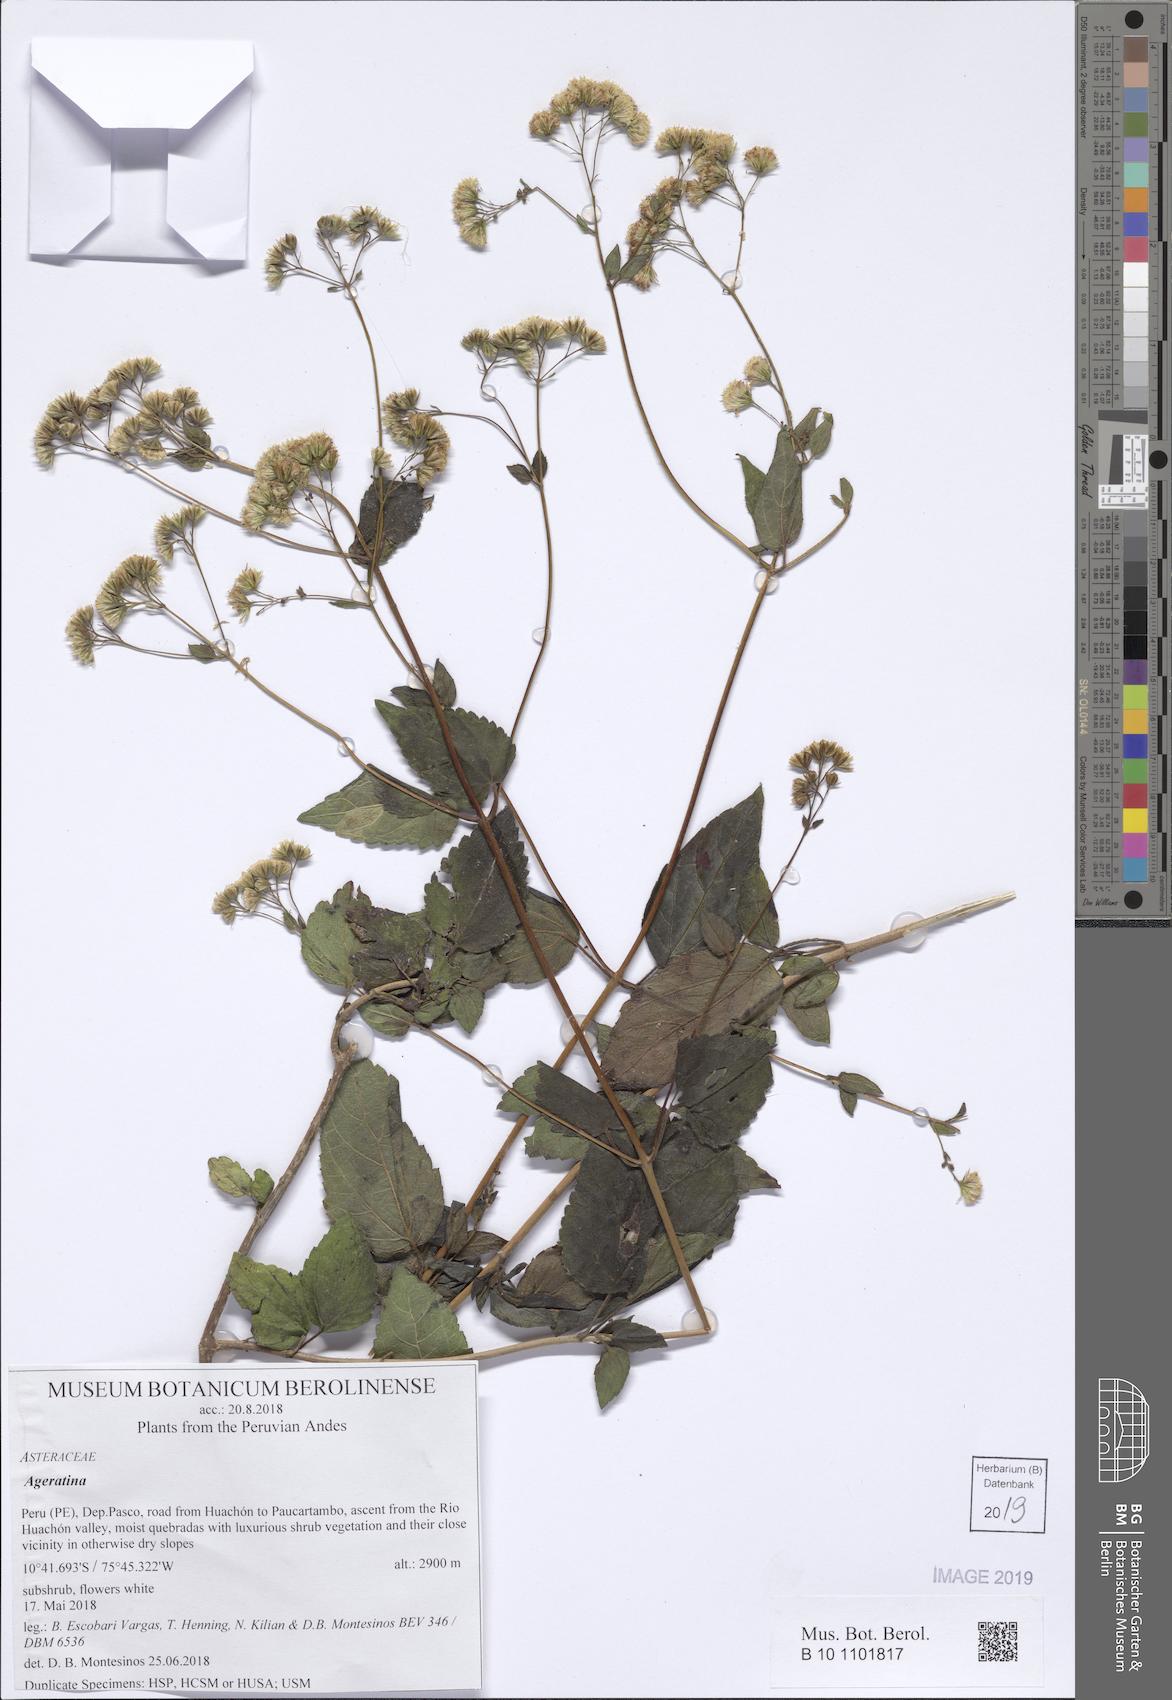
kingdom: Plantae
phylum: Tracheophyta
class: Magnoliopsida
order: Asterales
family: Asteraceae
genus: Ageratina
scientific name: Ageratina
